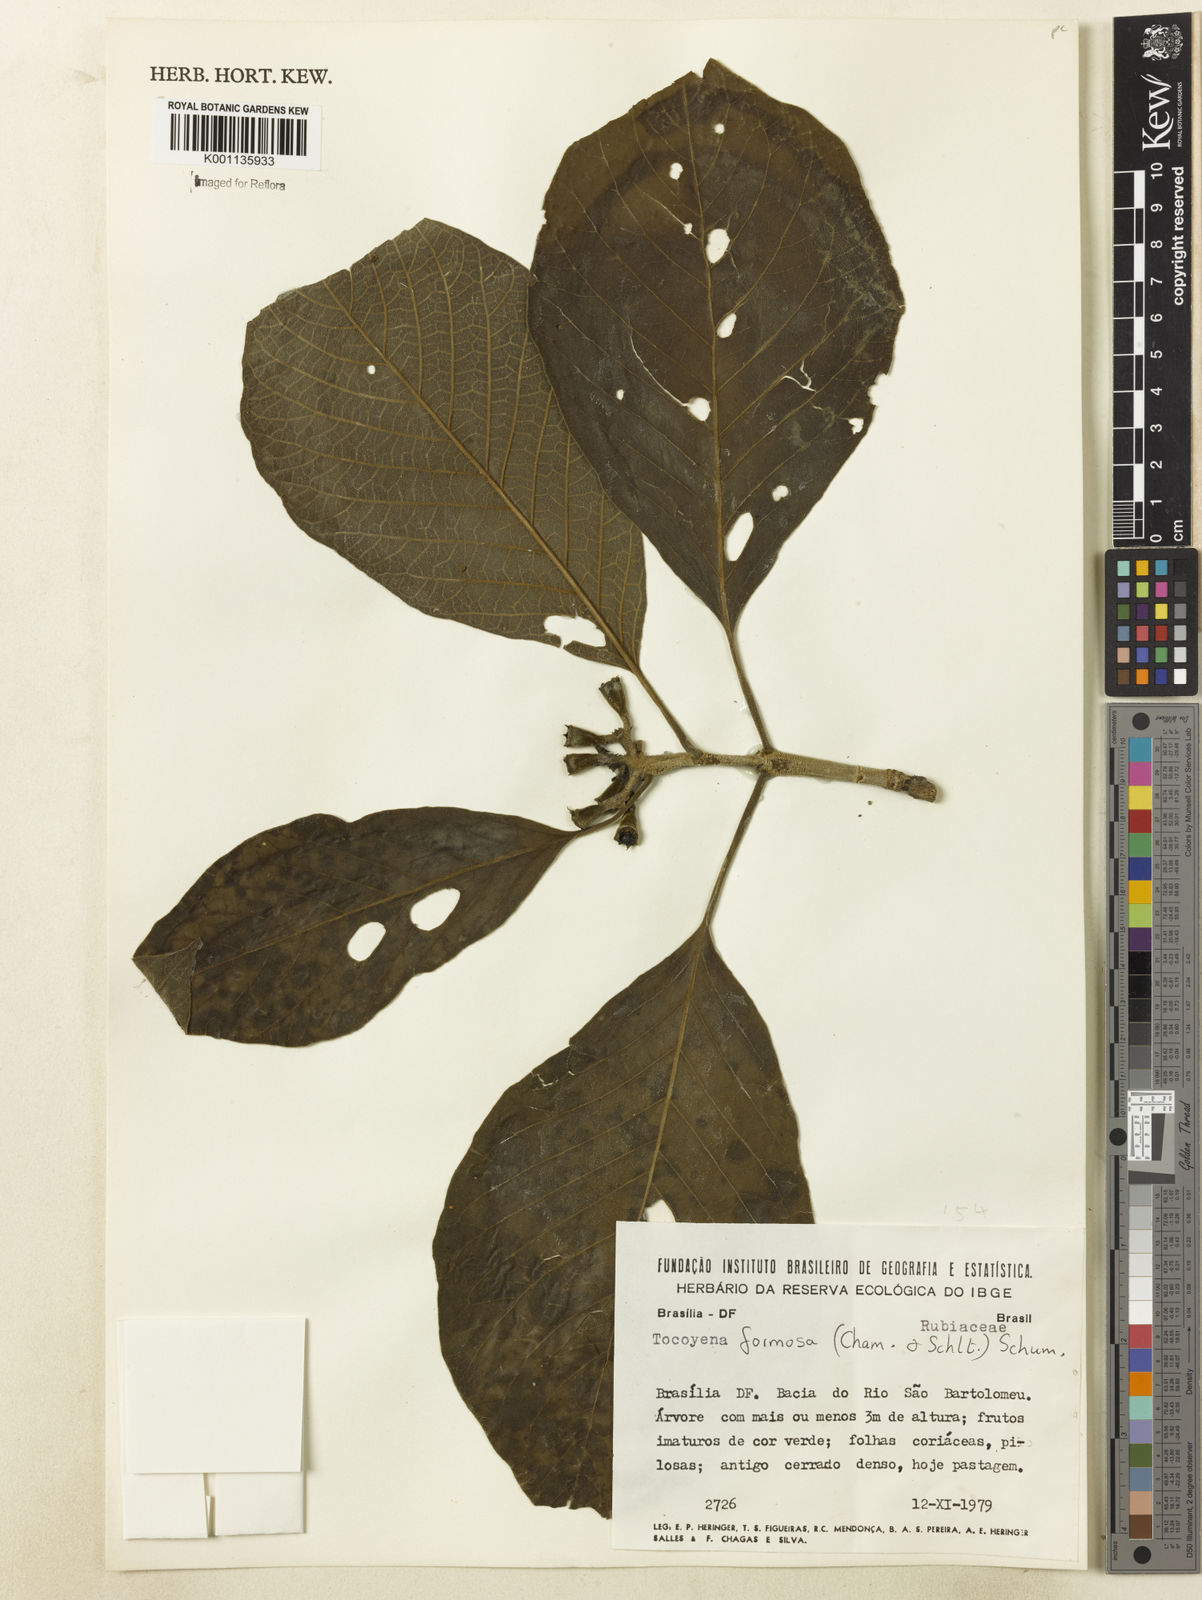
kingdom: Plantae
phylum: Tracheophyta
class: Magnoliopsida
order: Gentianales
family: Rubiaceae
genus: Tocoyena
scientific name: Tocoyena formosa
